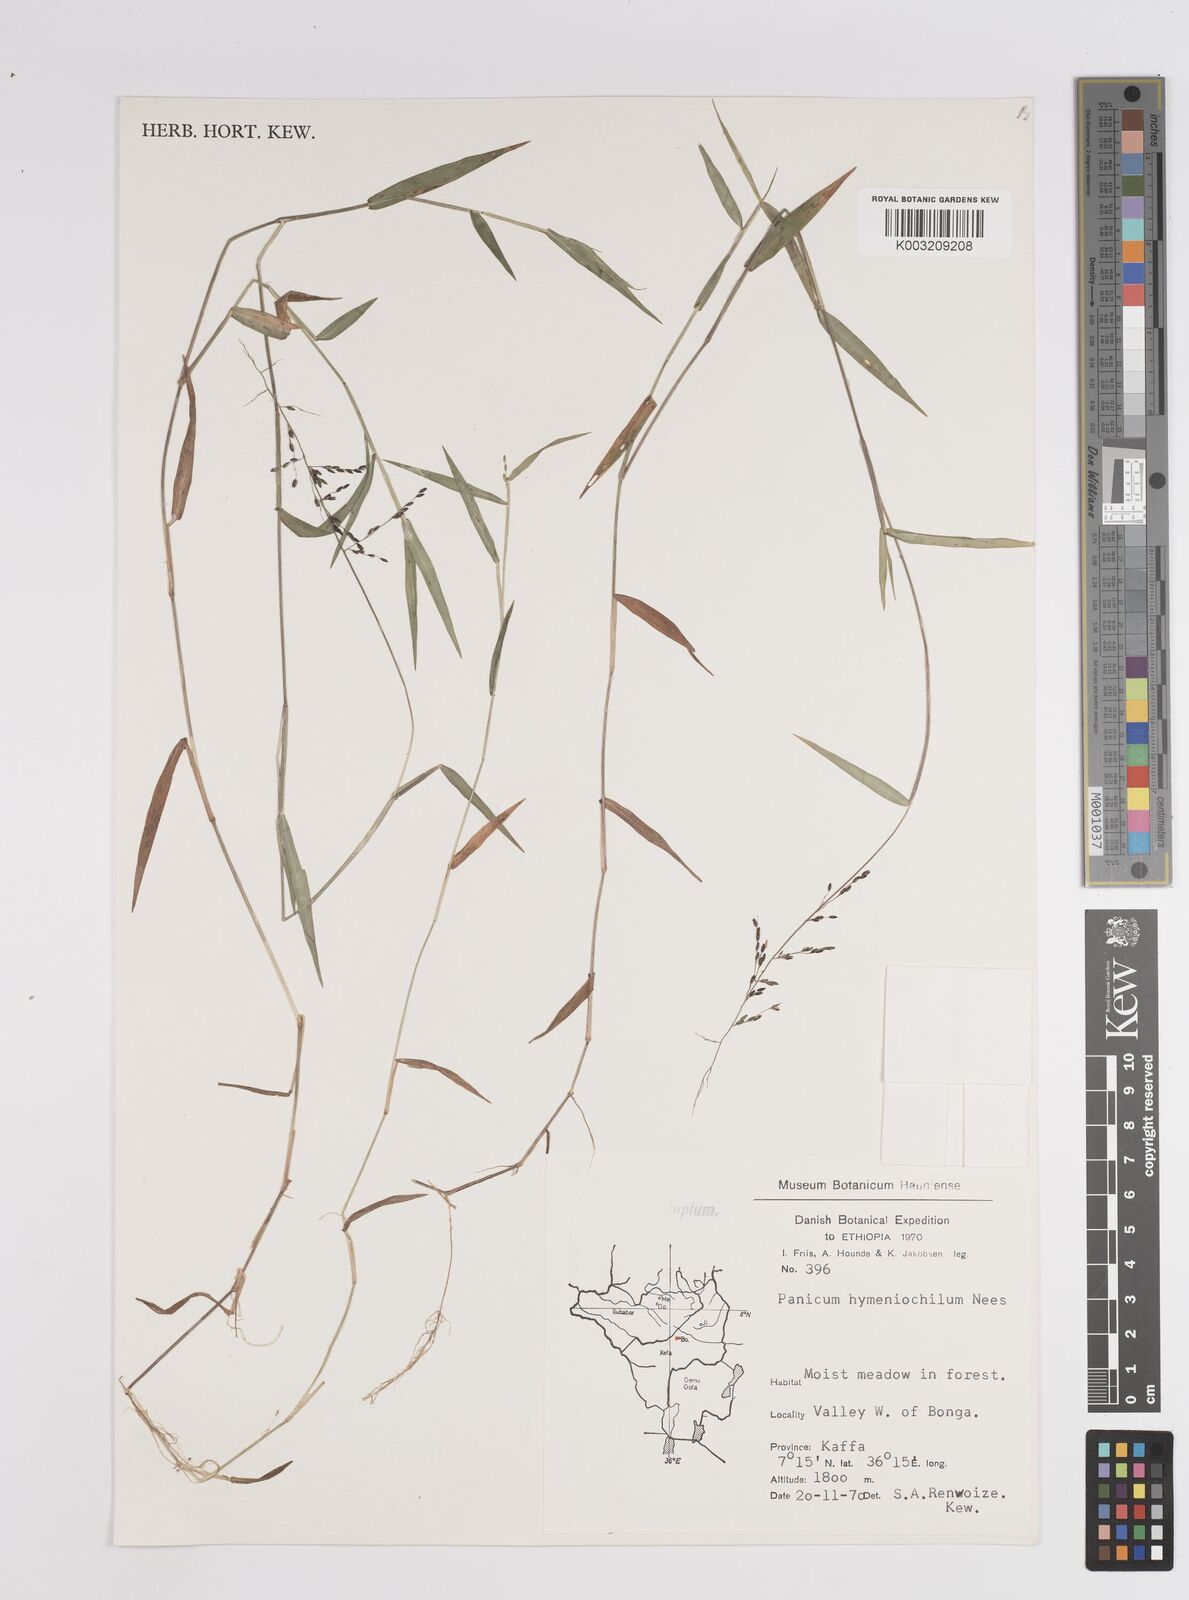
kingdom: Plantae
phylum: Tracheophyta
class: Liliopsida
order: Poales
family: Poaceae
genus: Adenochloa
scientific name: Adenochloa hymeniochila
